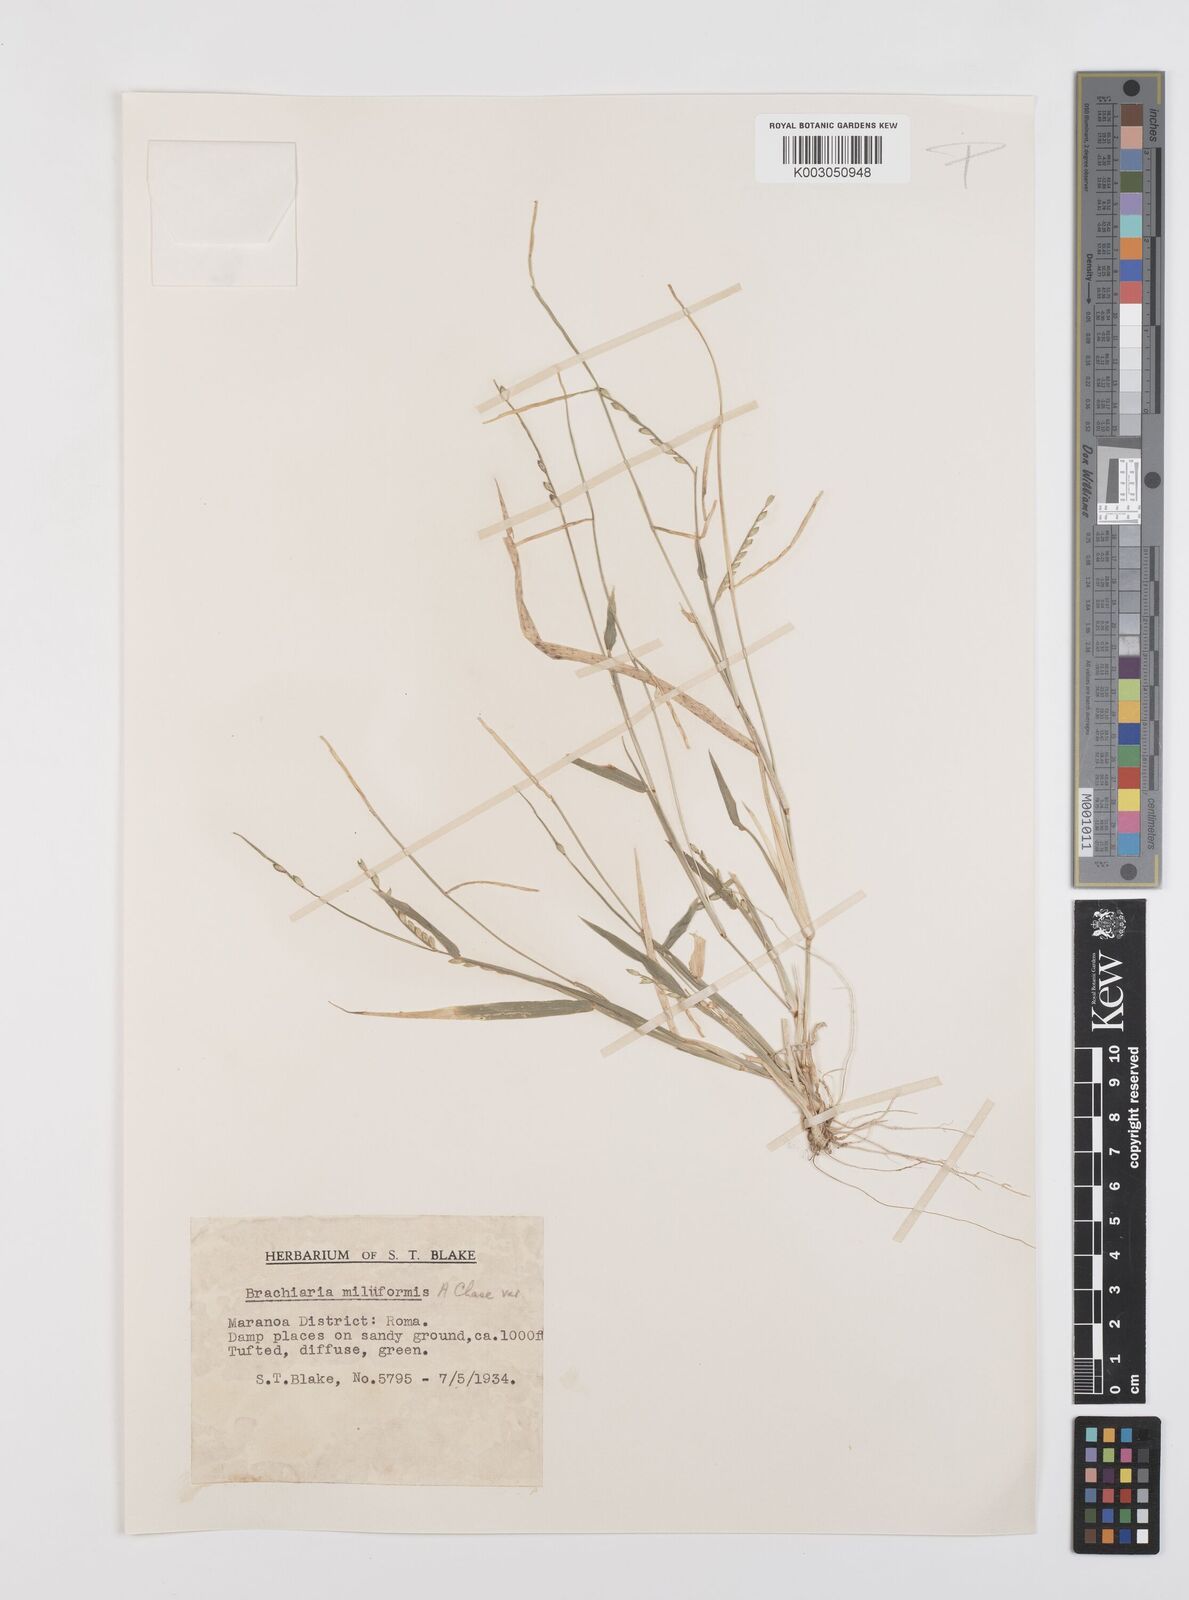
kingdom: Plantae
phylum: Tracheophyta
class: Liliopsida
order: Poales
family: Poaceae
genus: Urochloa
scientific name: Urochloa subquadripara
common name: Armgrass millet
